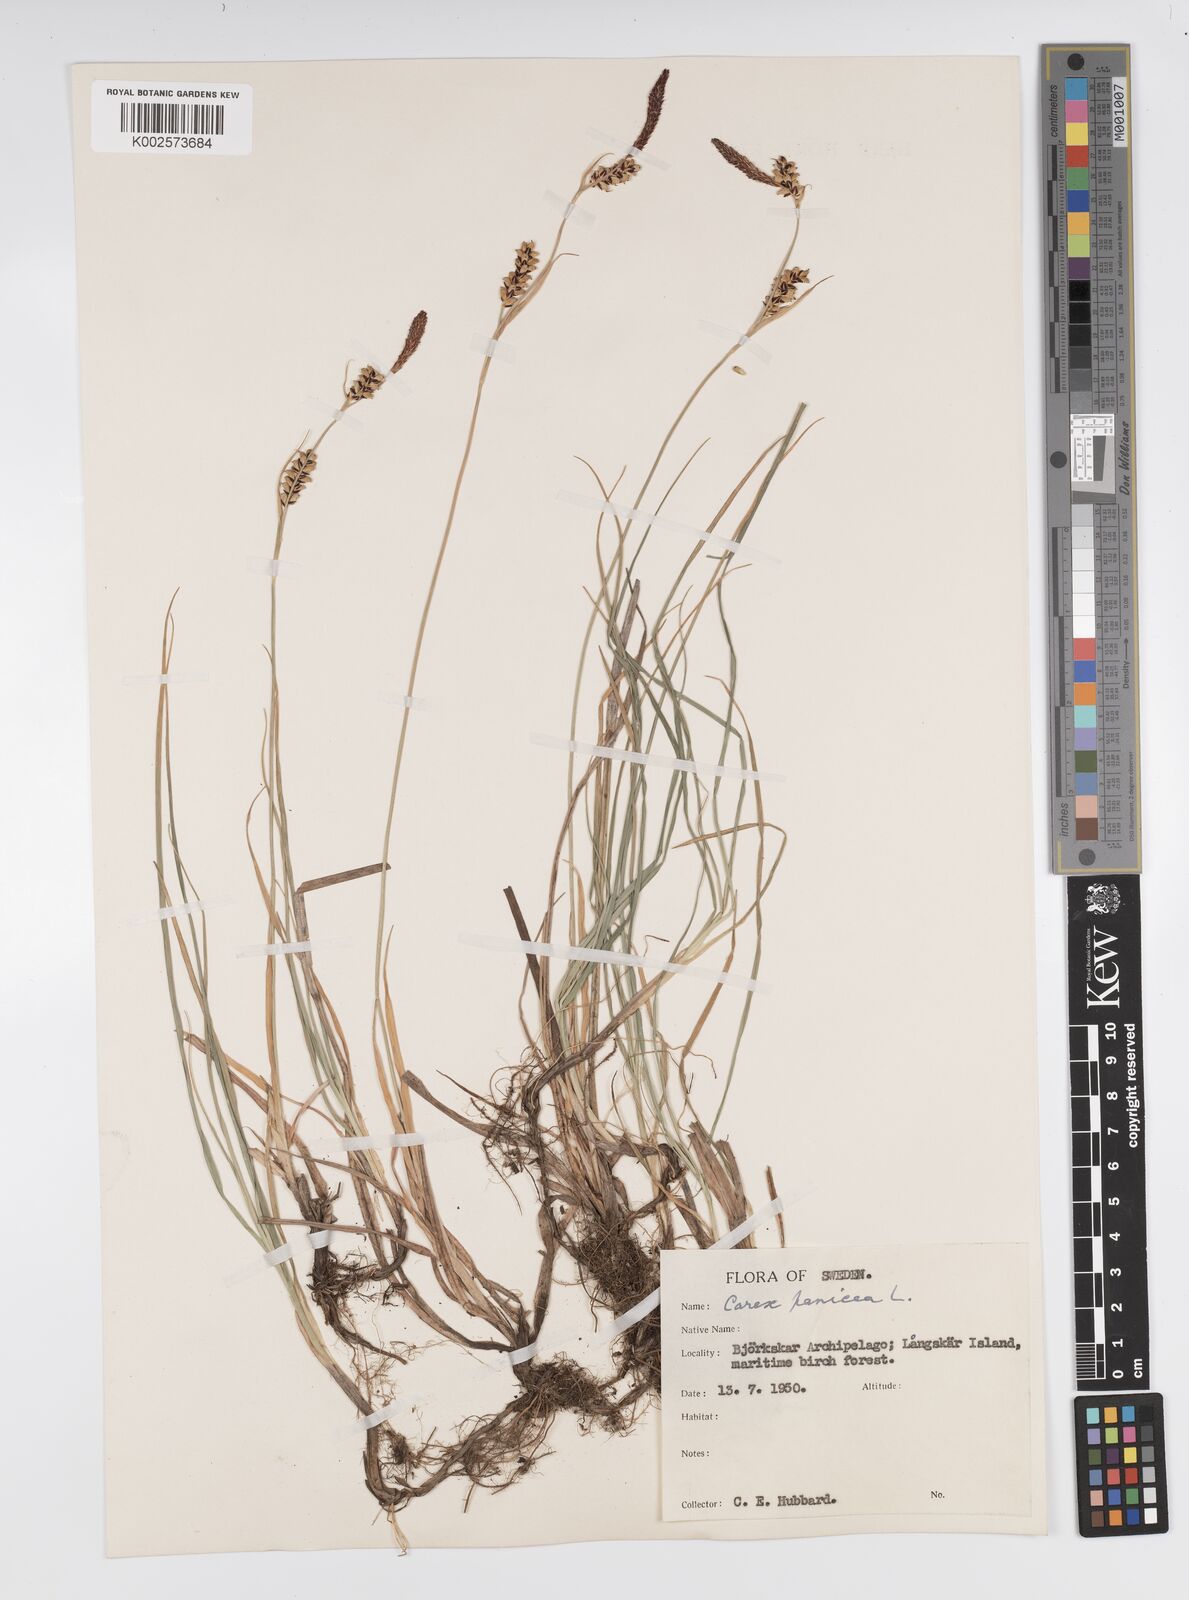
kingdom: Plantae
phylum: Tracheophyta
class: Liliopsida
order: Poales
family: Cyperaceae
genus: Carex
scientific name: Carex panicea
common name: Carnation sedge
